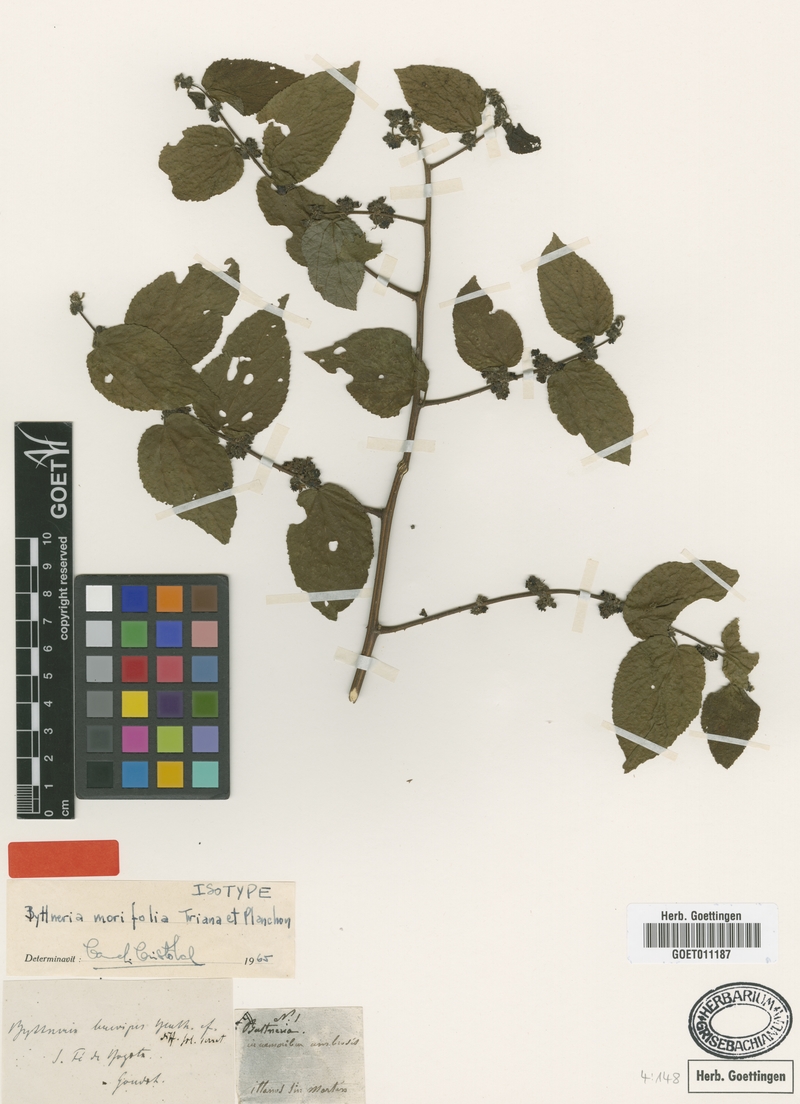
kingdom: Plantae
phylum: Tracheophyta
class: Magnoliopsida
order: Malvales
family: Malvaceae
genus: Byttneria
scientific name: Byttneria morifolia
